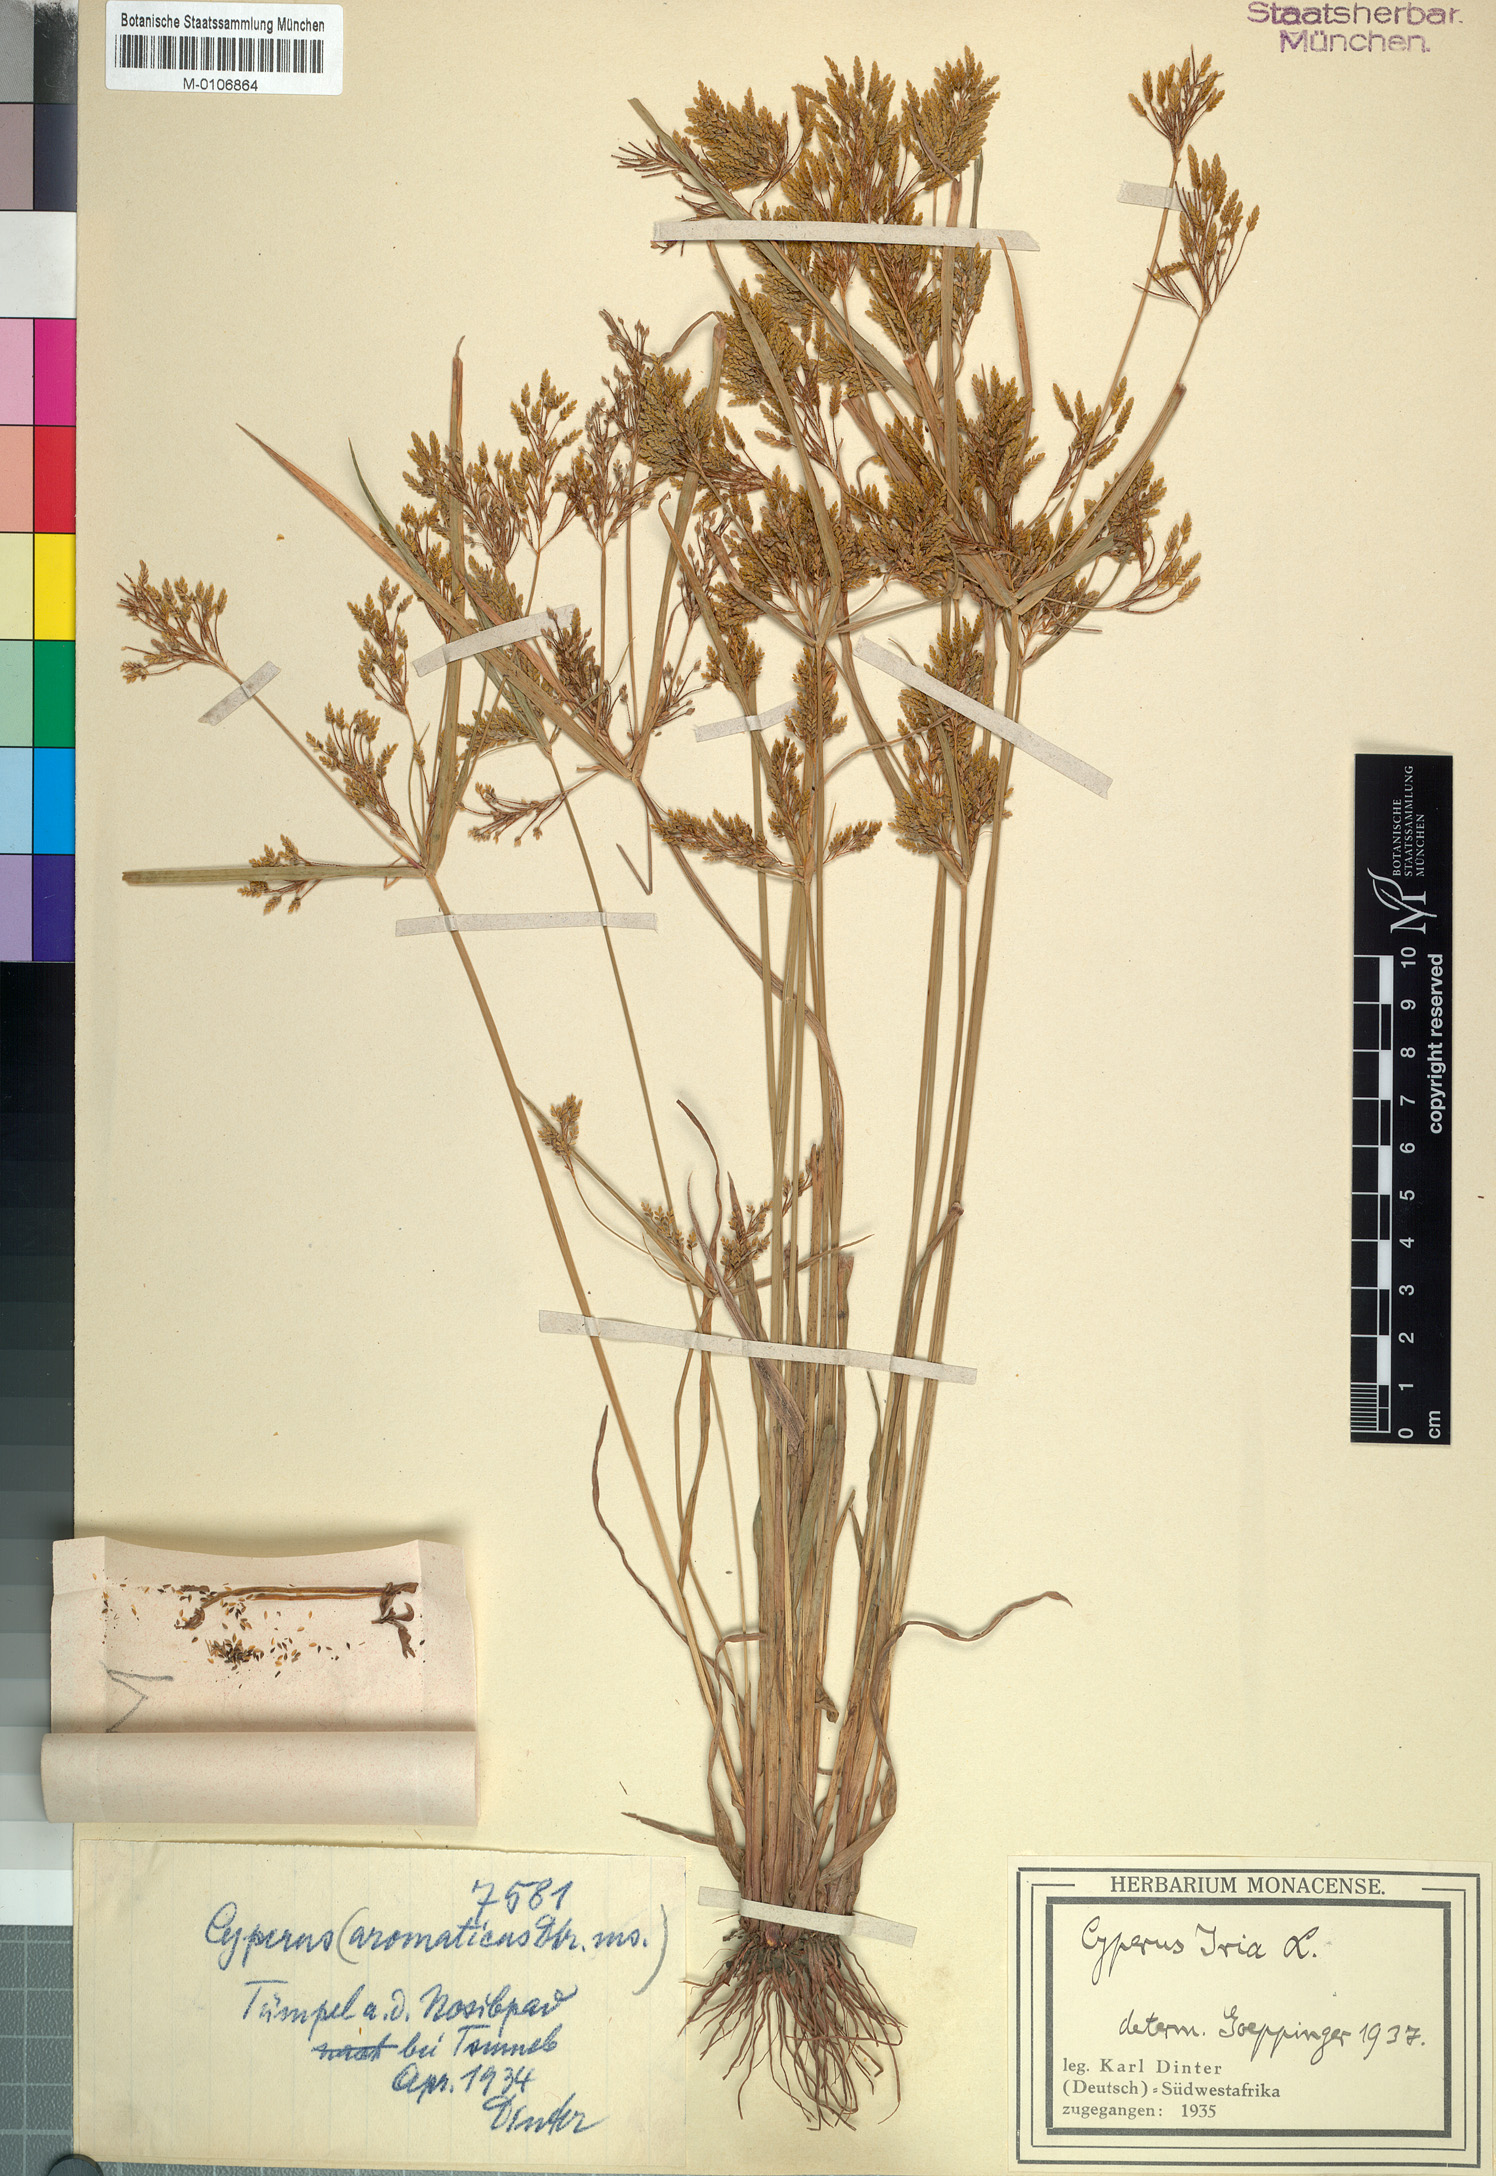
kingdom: Plantae
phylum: Tracheophyta
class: Liliopsida
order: Poales
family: Cyperaceae
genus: Cyperus
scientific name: Cyperus iria
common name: Ricefield flatsedge
